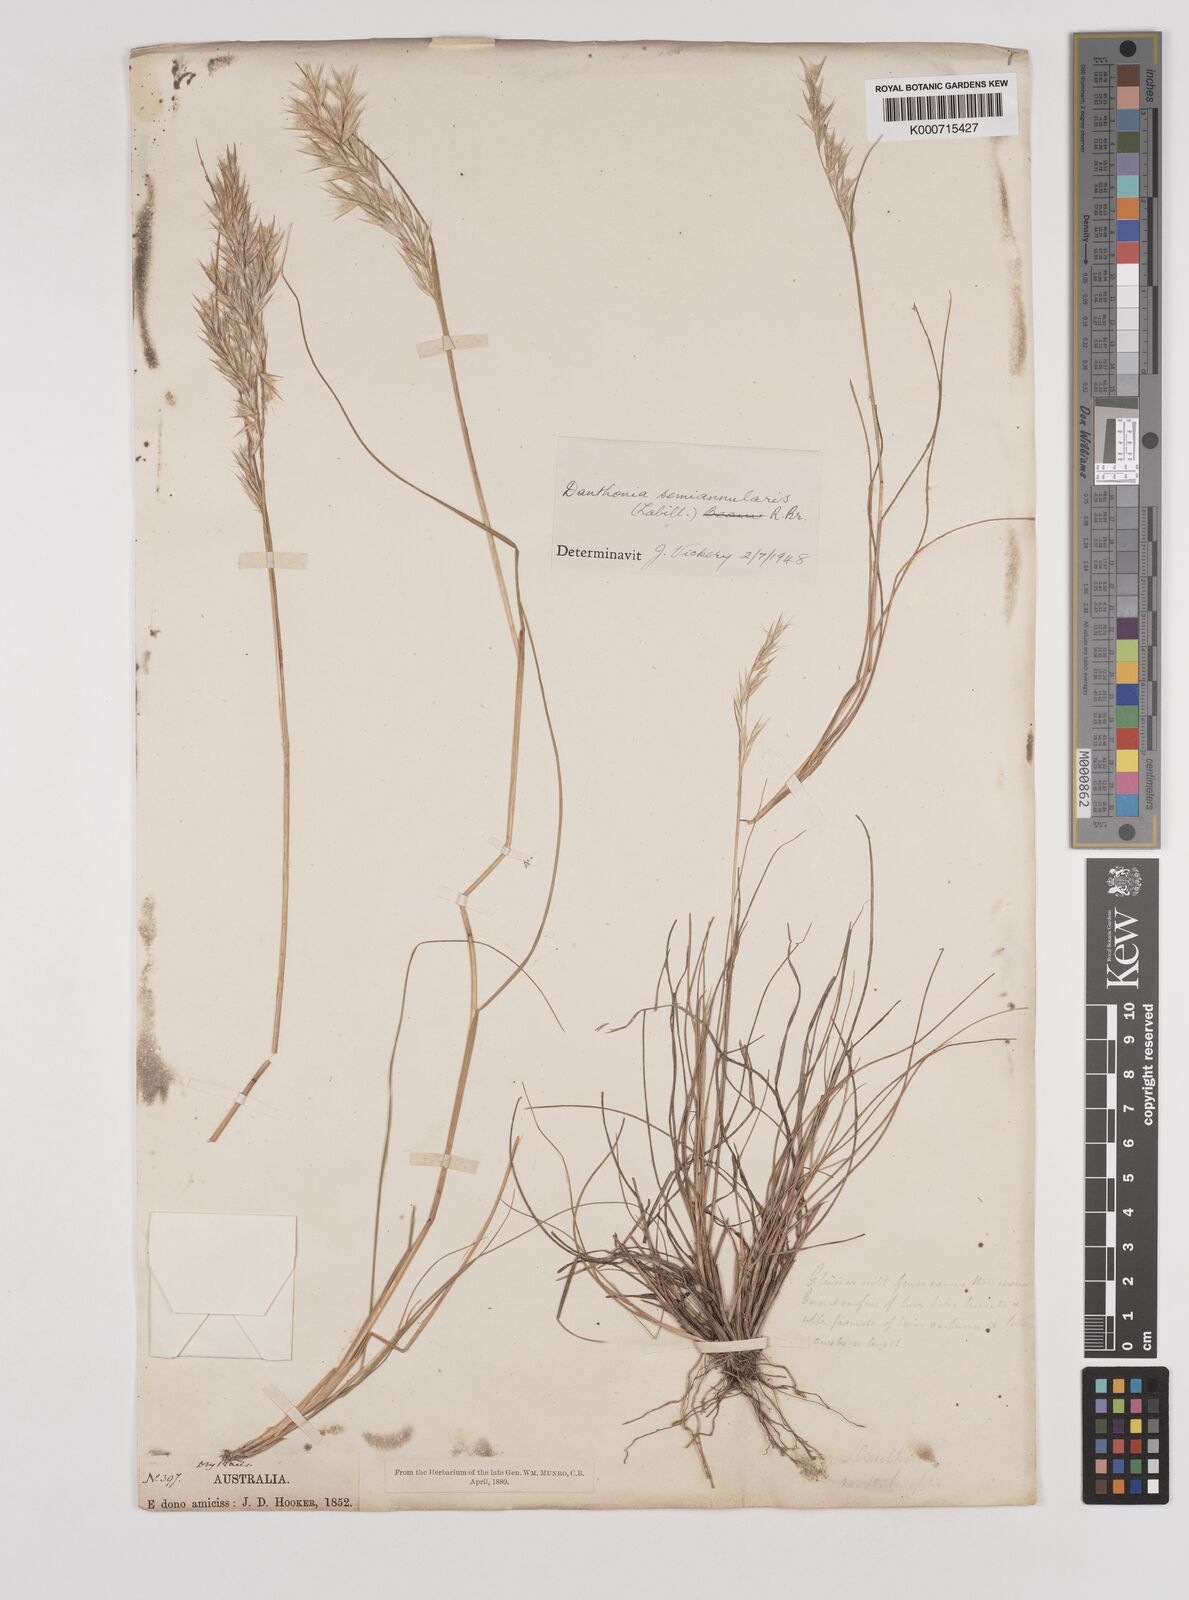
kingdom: Plantae
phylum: Tracheophyta
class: Liliopsida
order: Poales
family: Poaceae
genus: Rytidosperma
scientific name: Rytidosperma semiannulare
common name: Tasmanian wallaby grass
